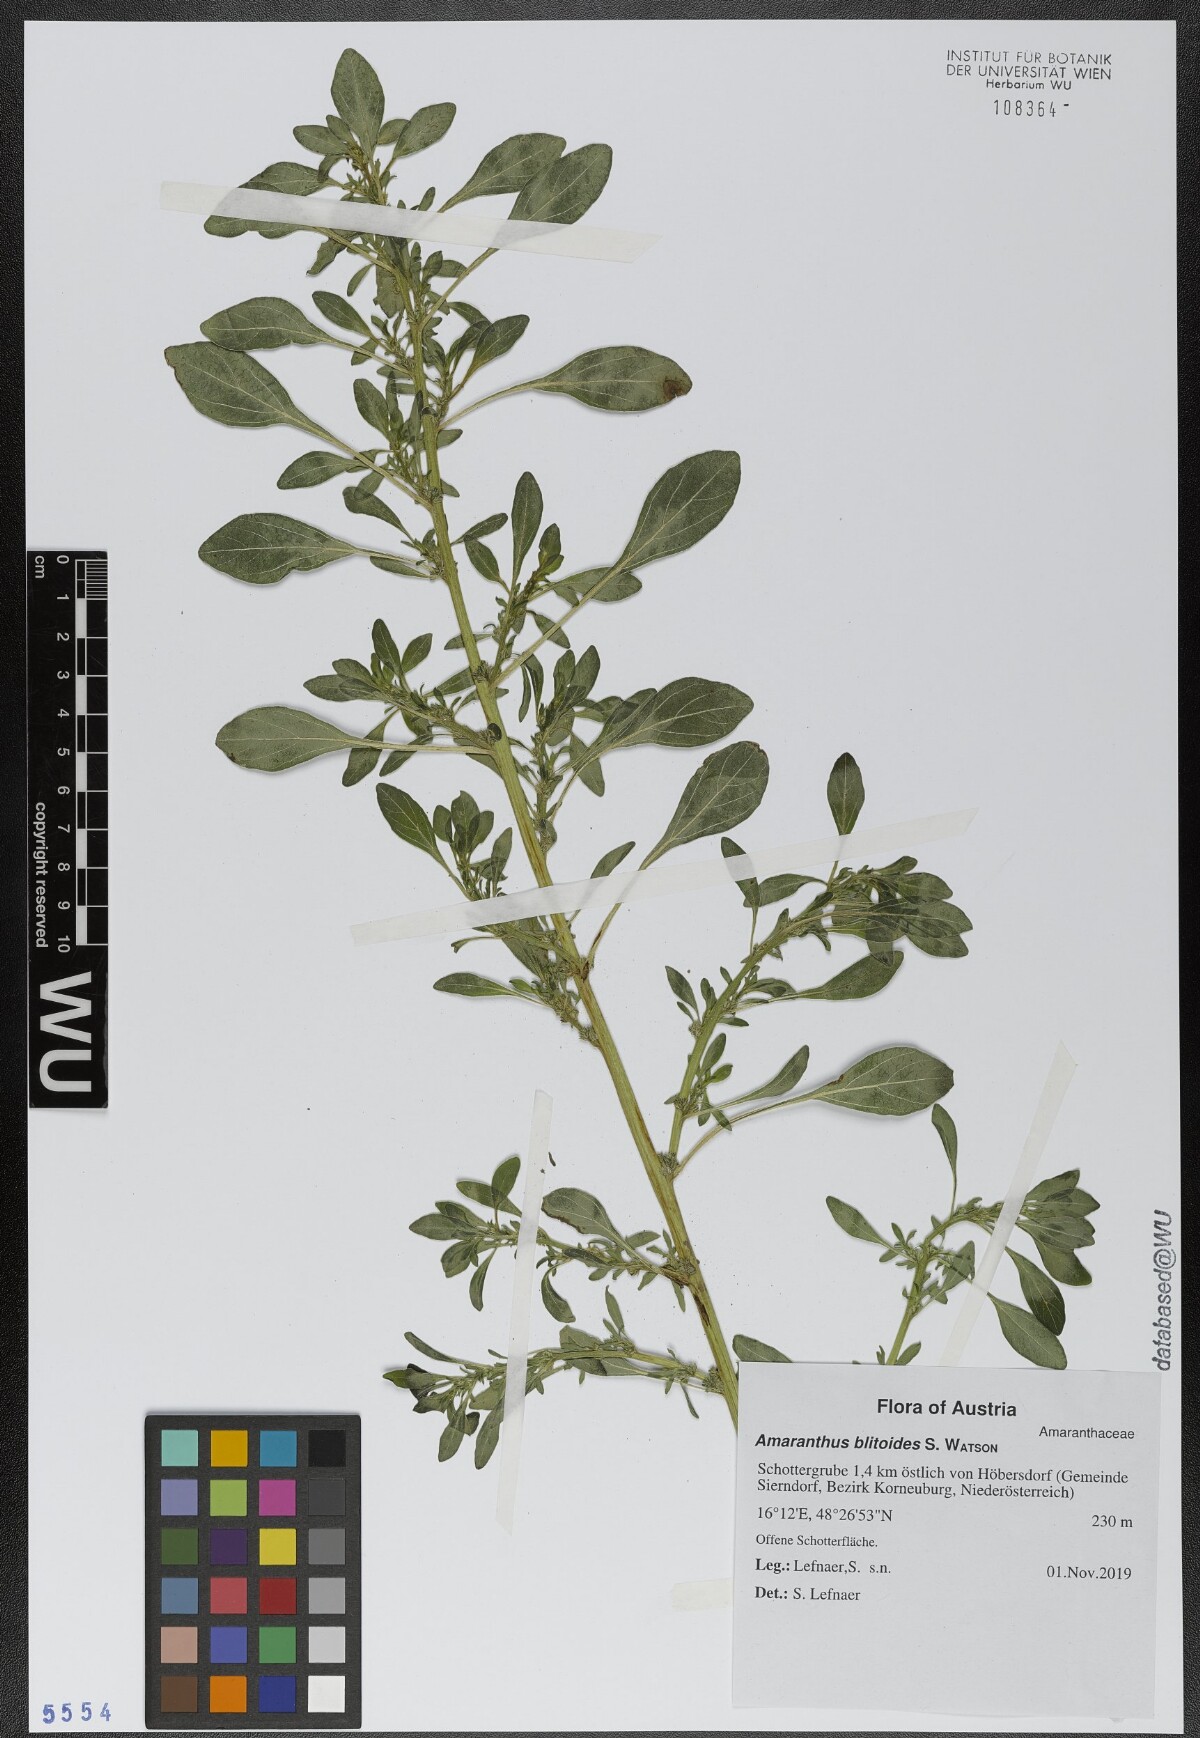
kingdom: Plantae
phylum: Tracheophyta
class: Magnoliopsida
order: Caryophyllales
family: Amaranthaceae
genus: Amaranthus
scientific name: Amaranthus blitoides
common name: Prostrate pigweed
